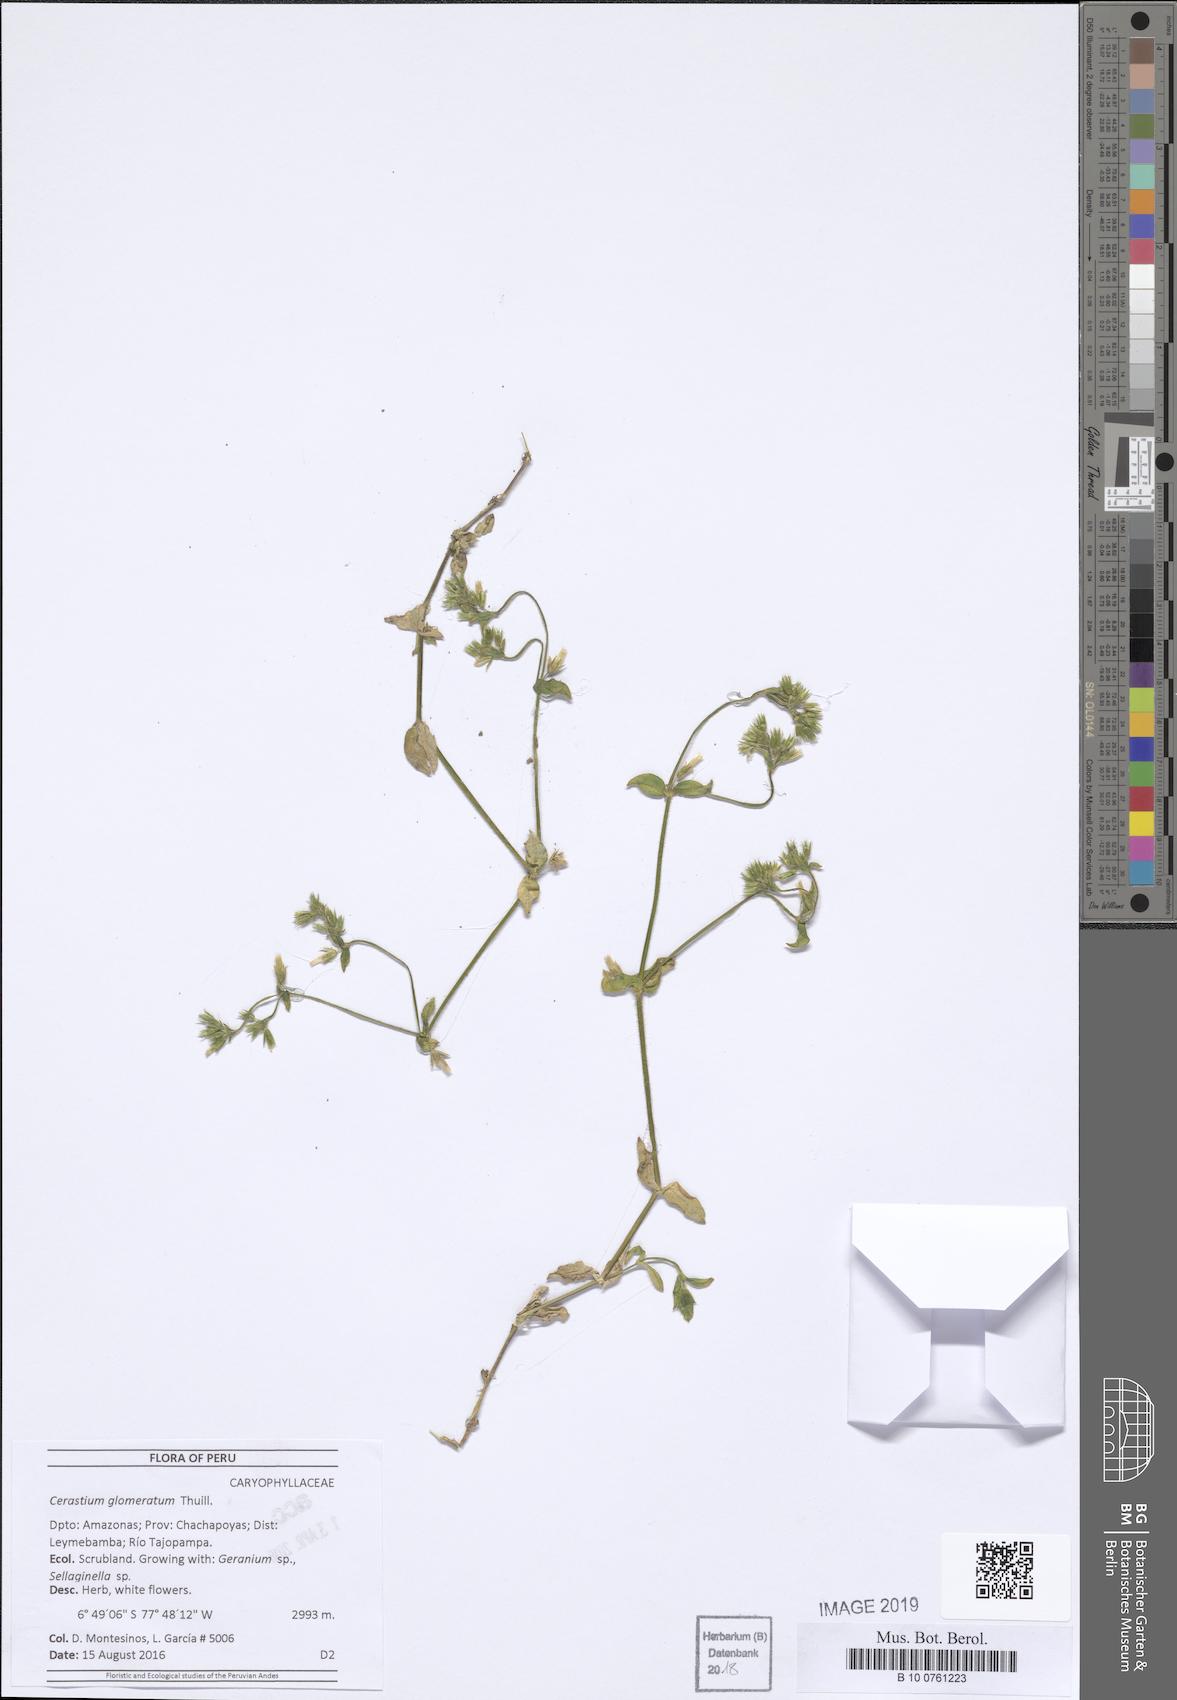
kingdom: Plantae
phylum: Tracheophyta
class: Magnoliopsida
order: Caryophyllales
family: Caryophyllaceae
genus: Cerastium
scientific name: Cerastium glomeratum
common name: Sticky chickweed
